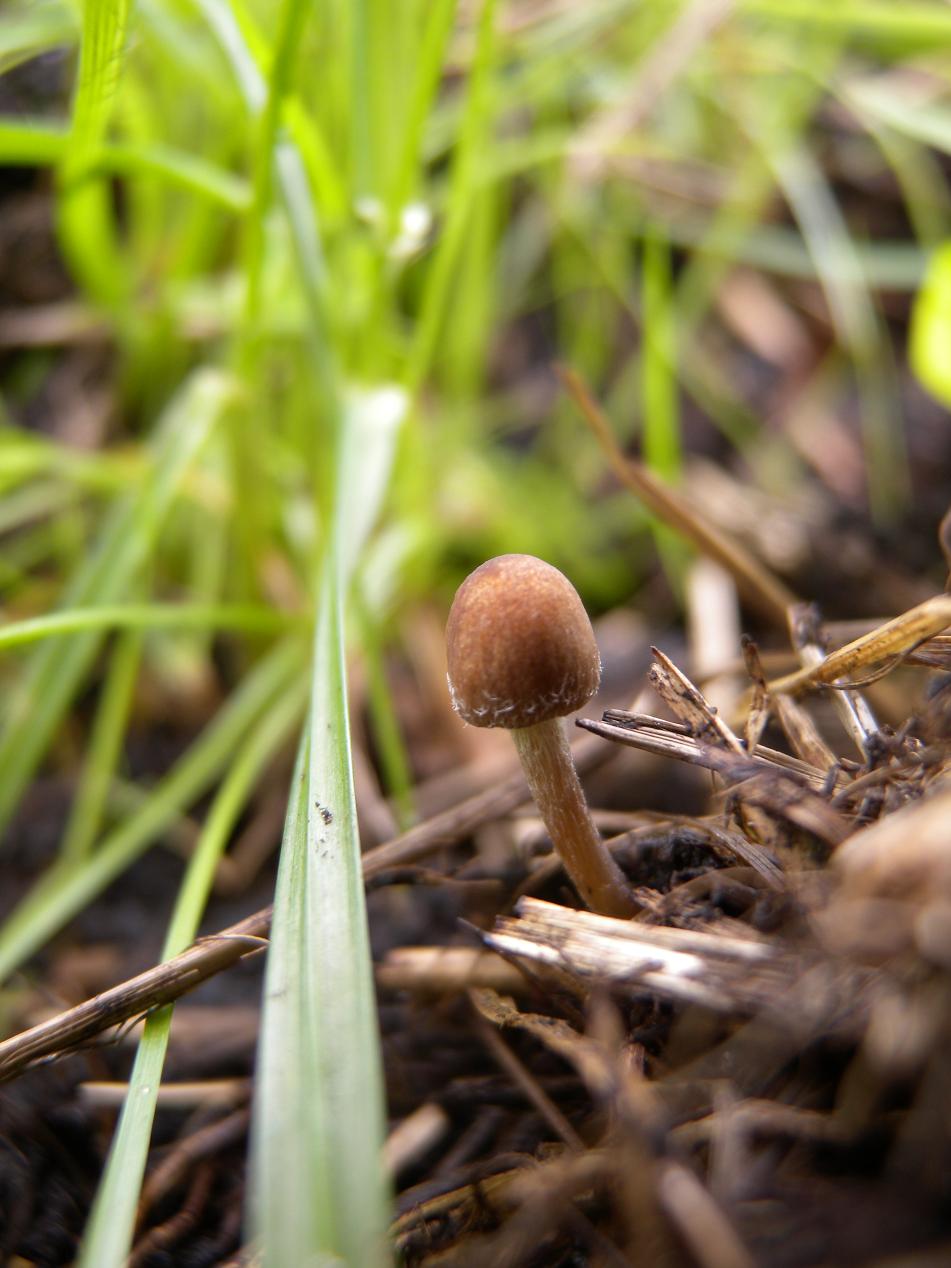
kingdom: Fungi
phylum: Basidiomycota
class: Agaricomycetes
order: Agaricales
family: Psathyrellaceae
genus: Psathyrella
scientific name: Psathyrella potteri
